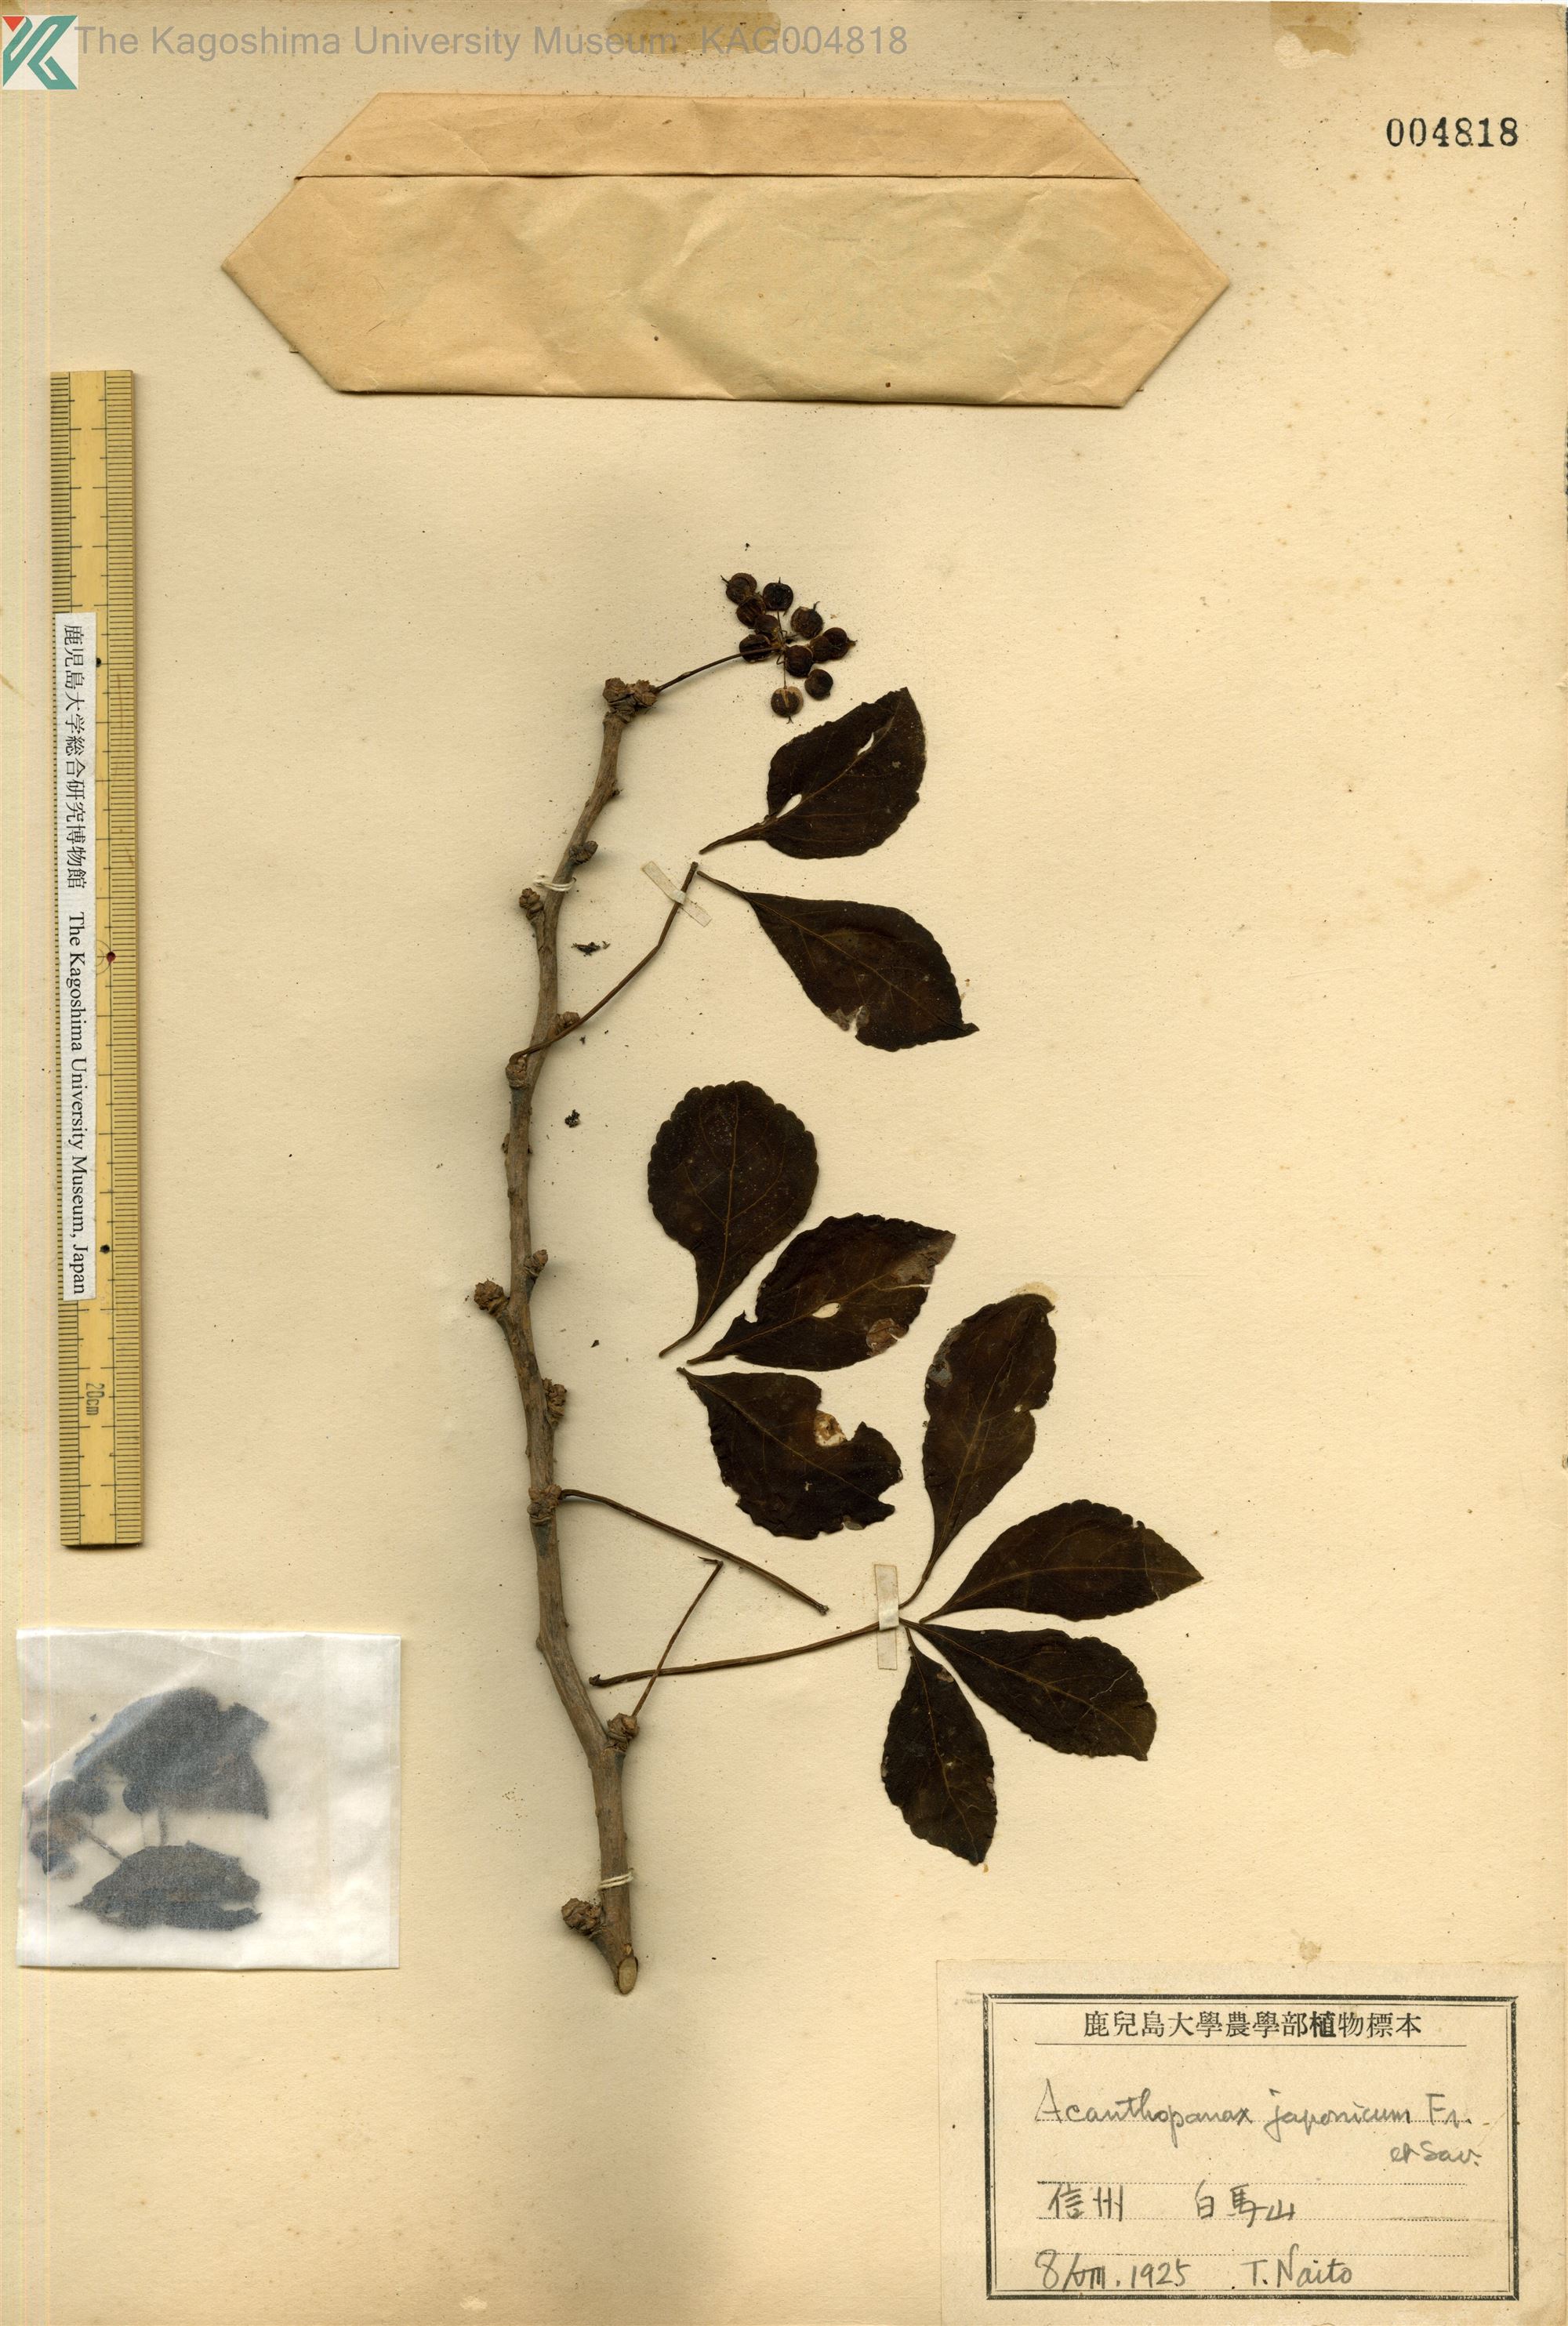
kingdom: Plantae
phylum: Tracheophyta
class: Magnoliopsida
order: Apiales
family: Araliaceae
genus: Eleutherococcus
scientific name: Eleutherococcus nodiflorus
